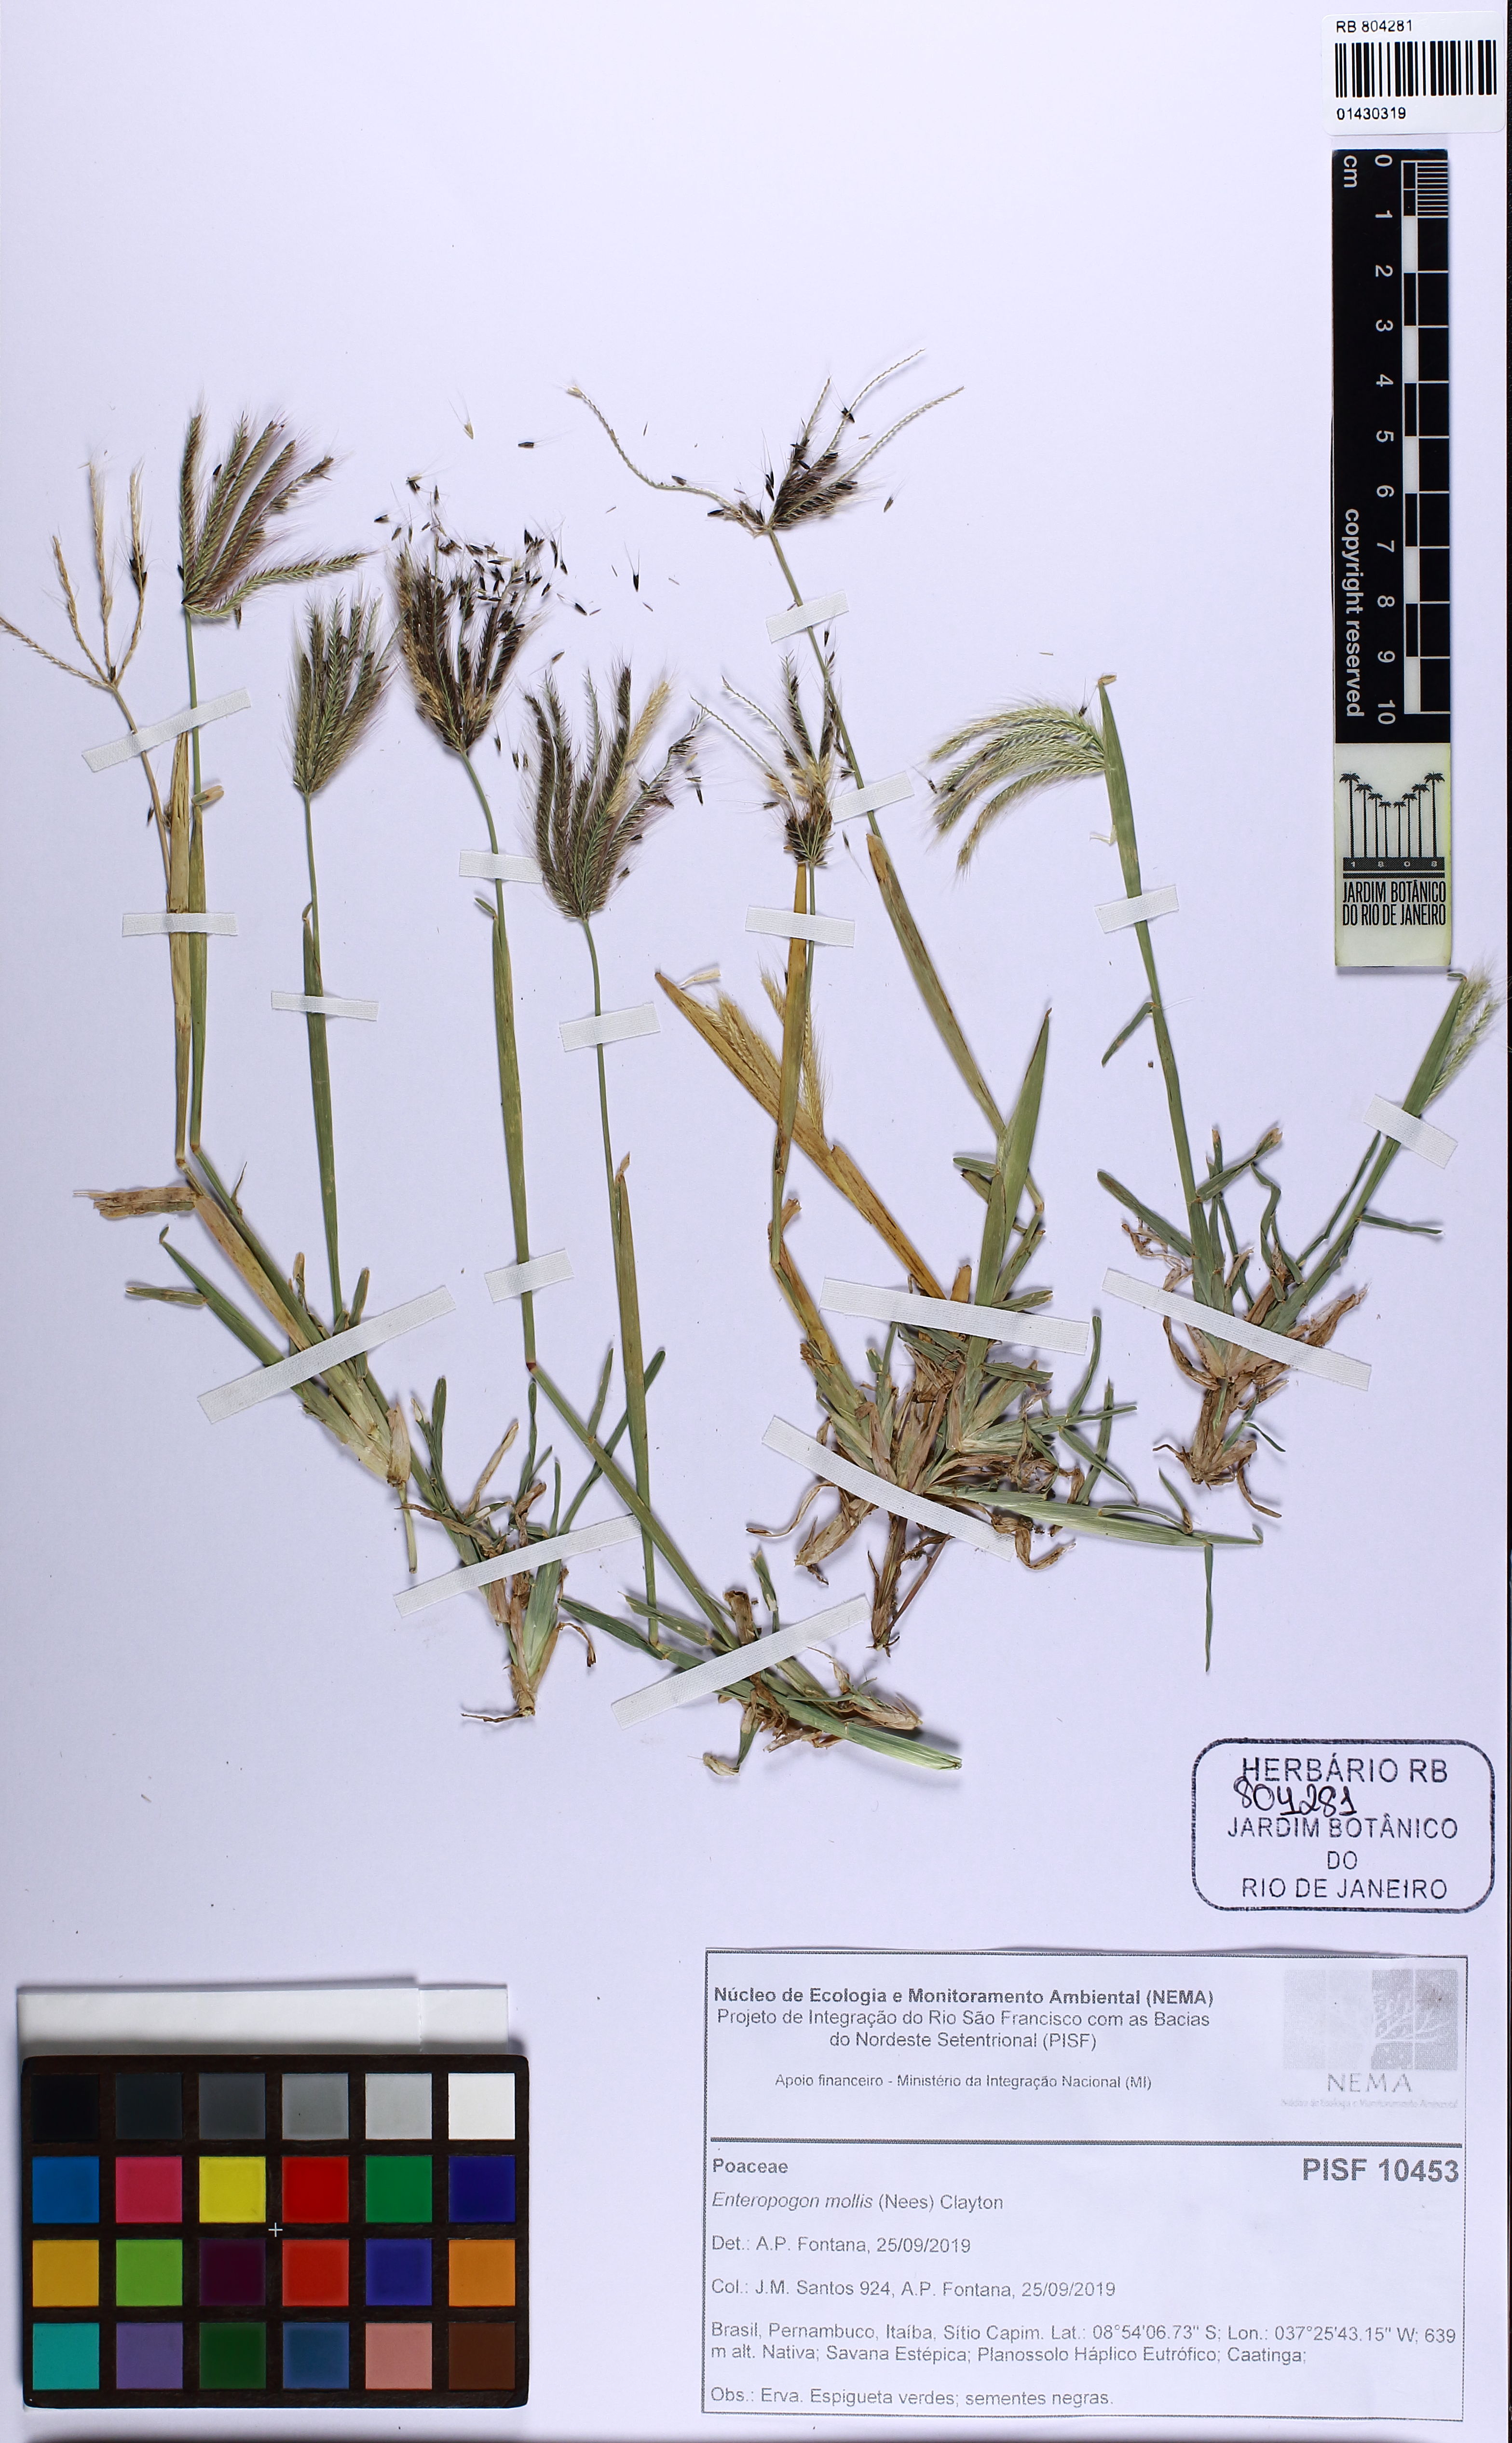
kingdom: Plantae
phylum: Tracheophyta
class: Liliopsida
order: Poales
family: Poaceae
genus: Leptochloa
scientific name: Leptochloa anisopoda
